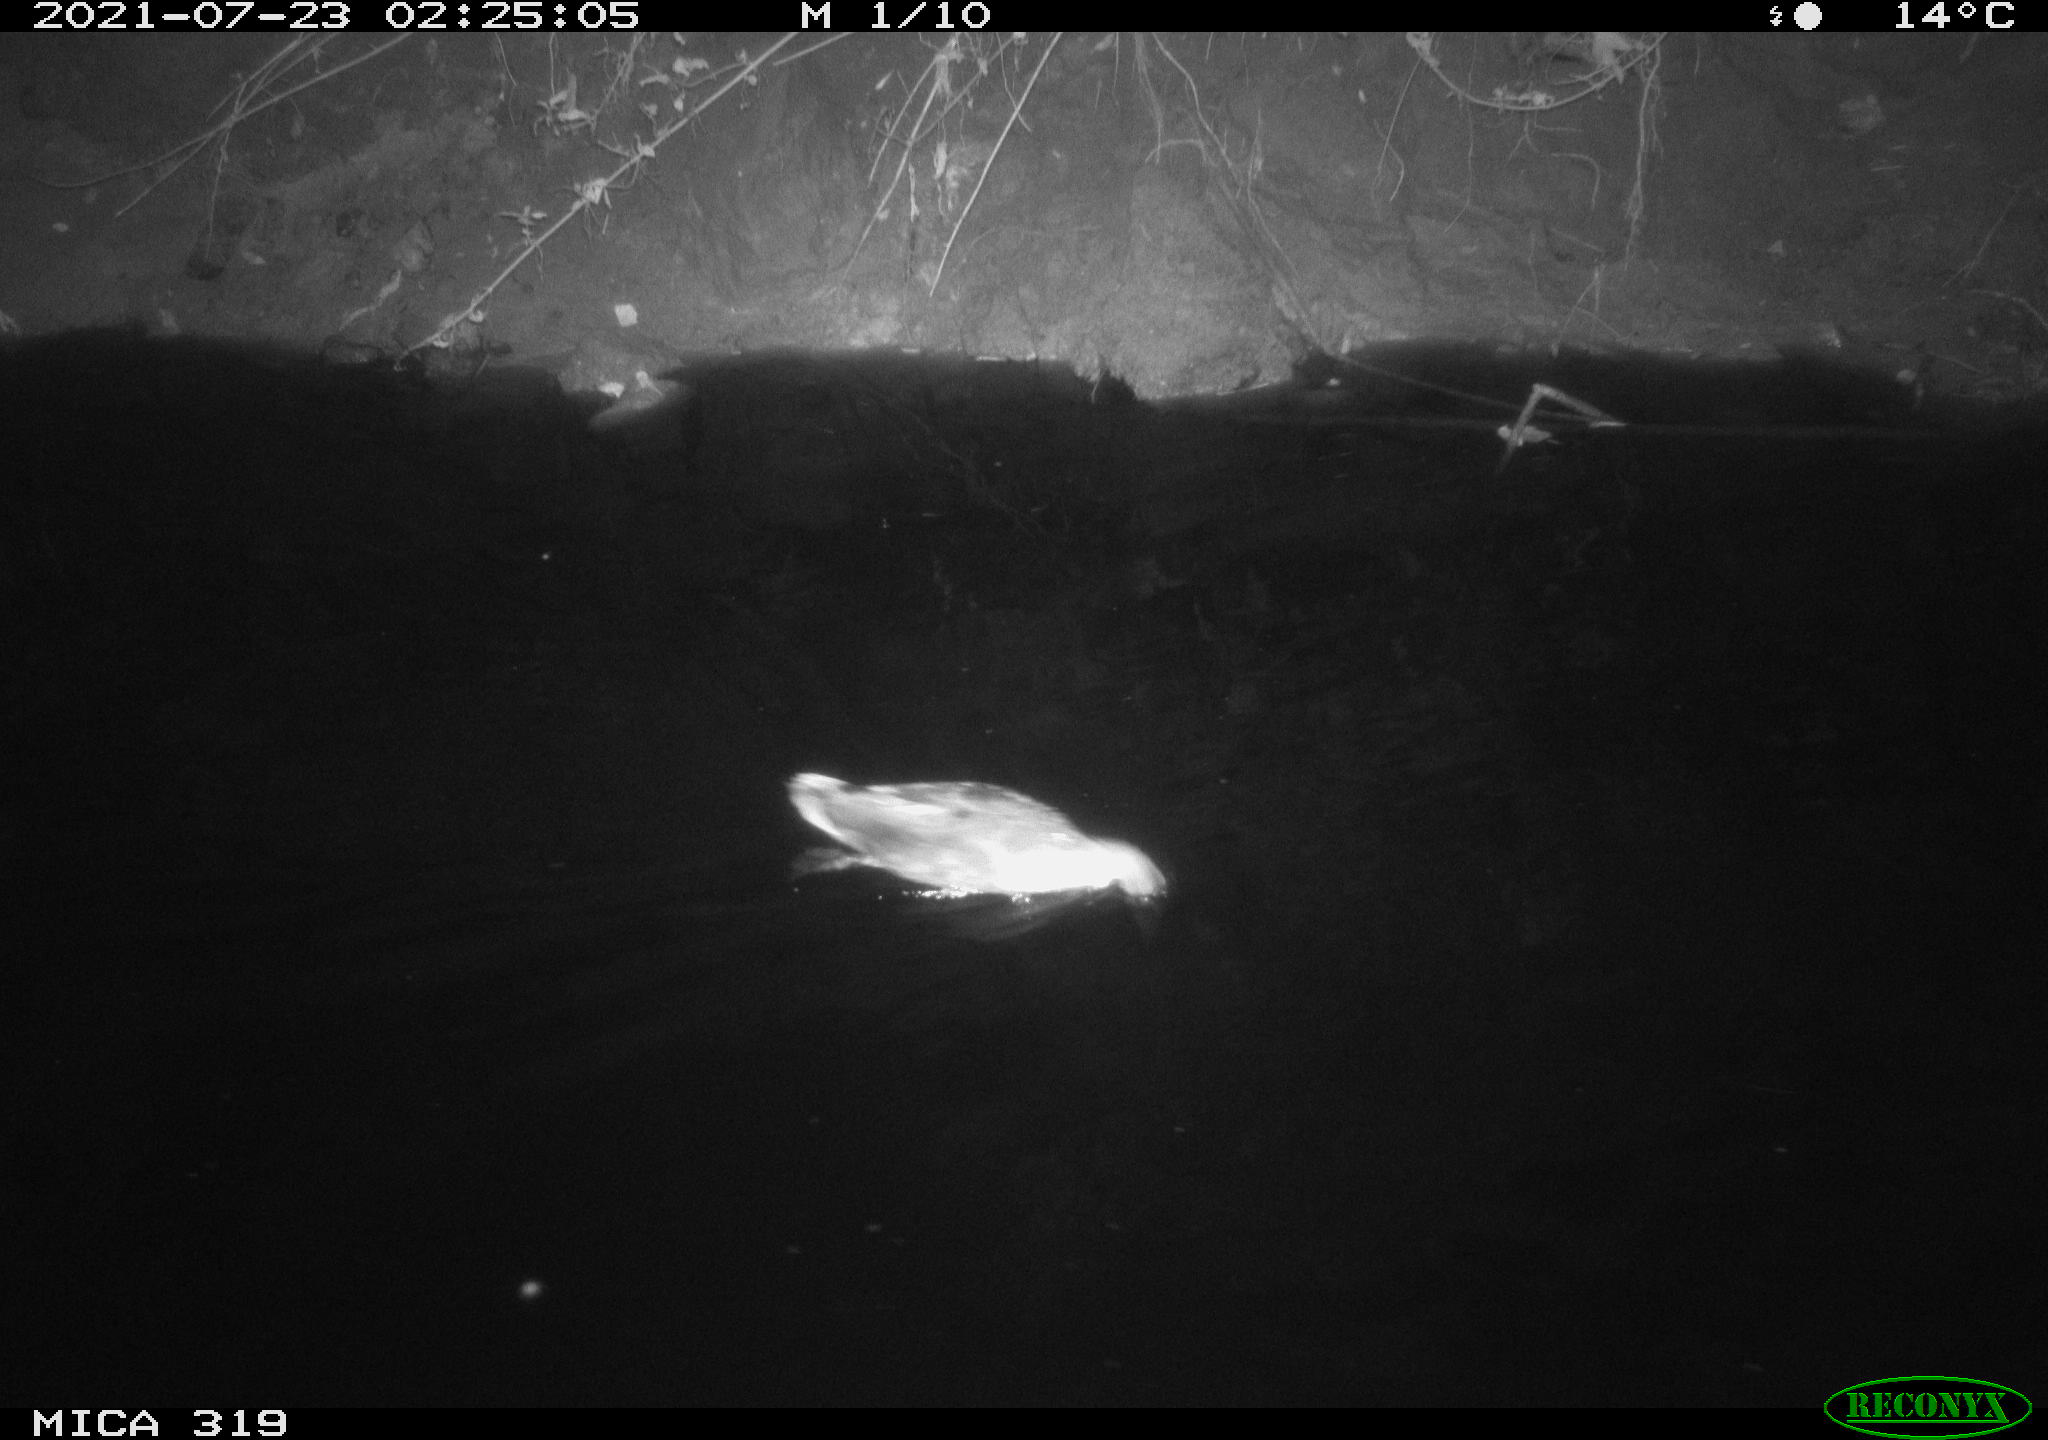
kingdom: Animalia
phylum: Chordata
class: Aves
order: Anseriformes
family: Anatidae
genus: Anas
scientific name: Anas platyrhynchos
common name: Mallard
